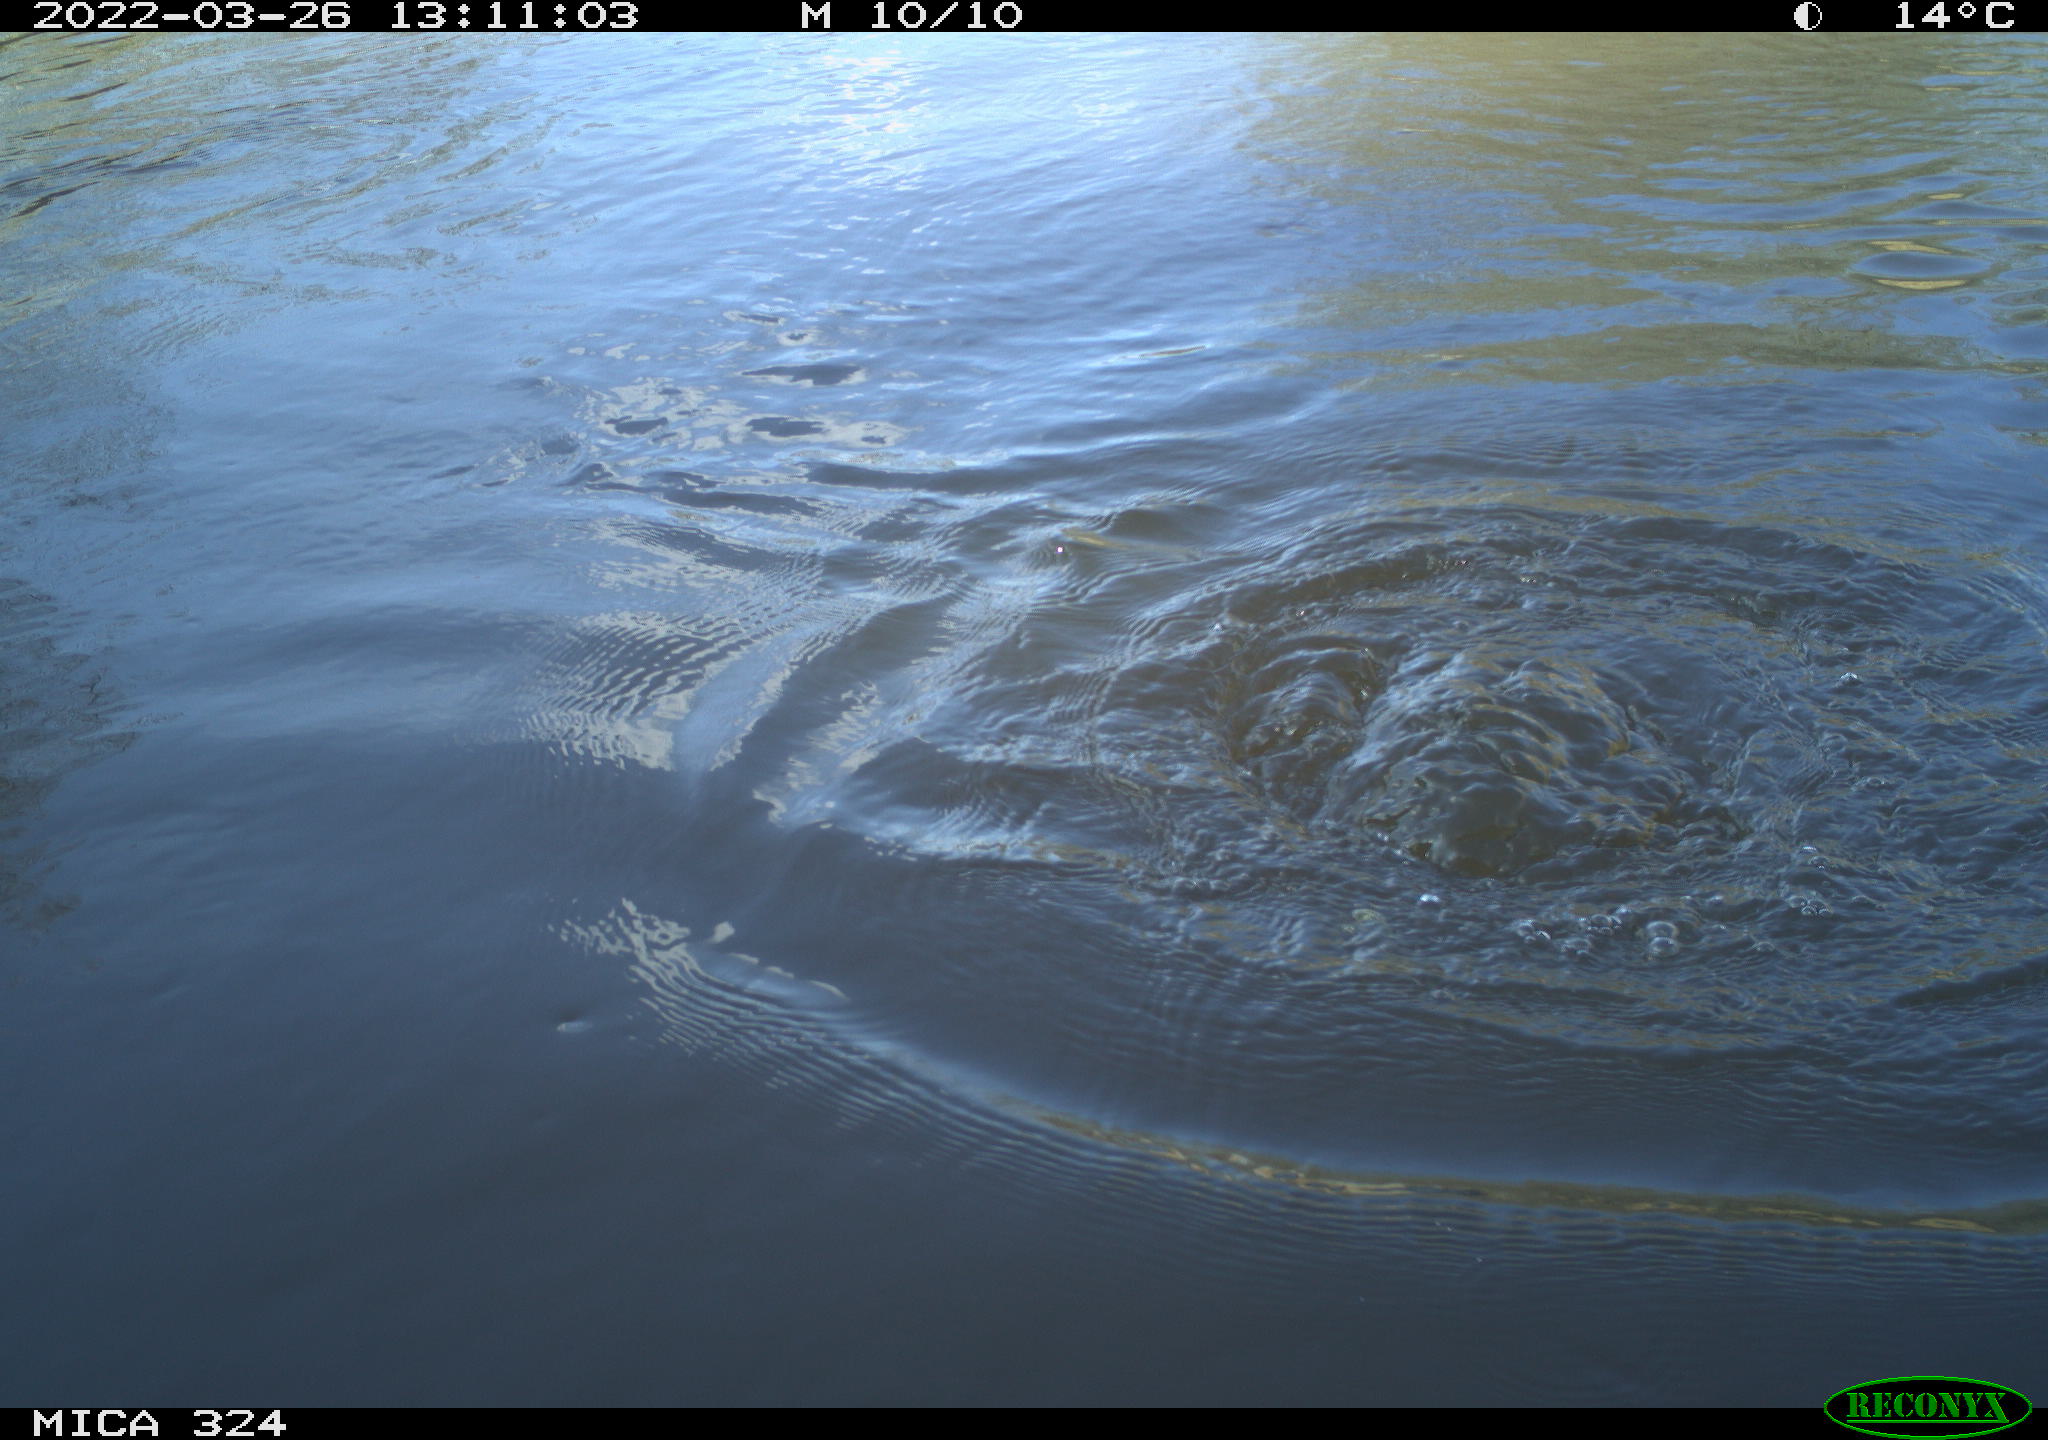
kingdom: Animalia
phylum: Chordata
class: Aves
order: Suliformes
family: Phalacrocoracidae
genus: Phalacrocorax
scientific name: Phalacrocorax carbo
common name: Great cormorant
